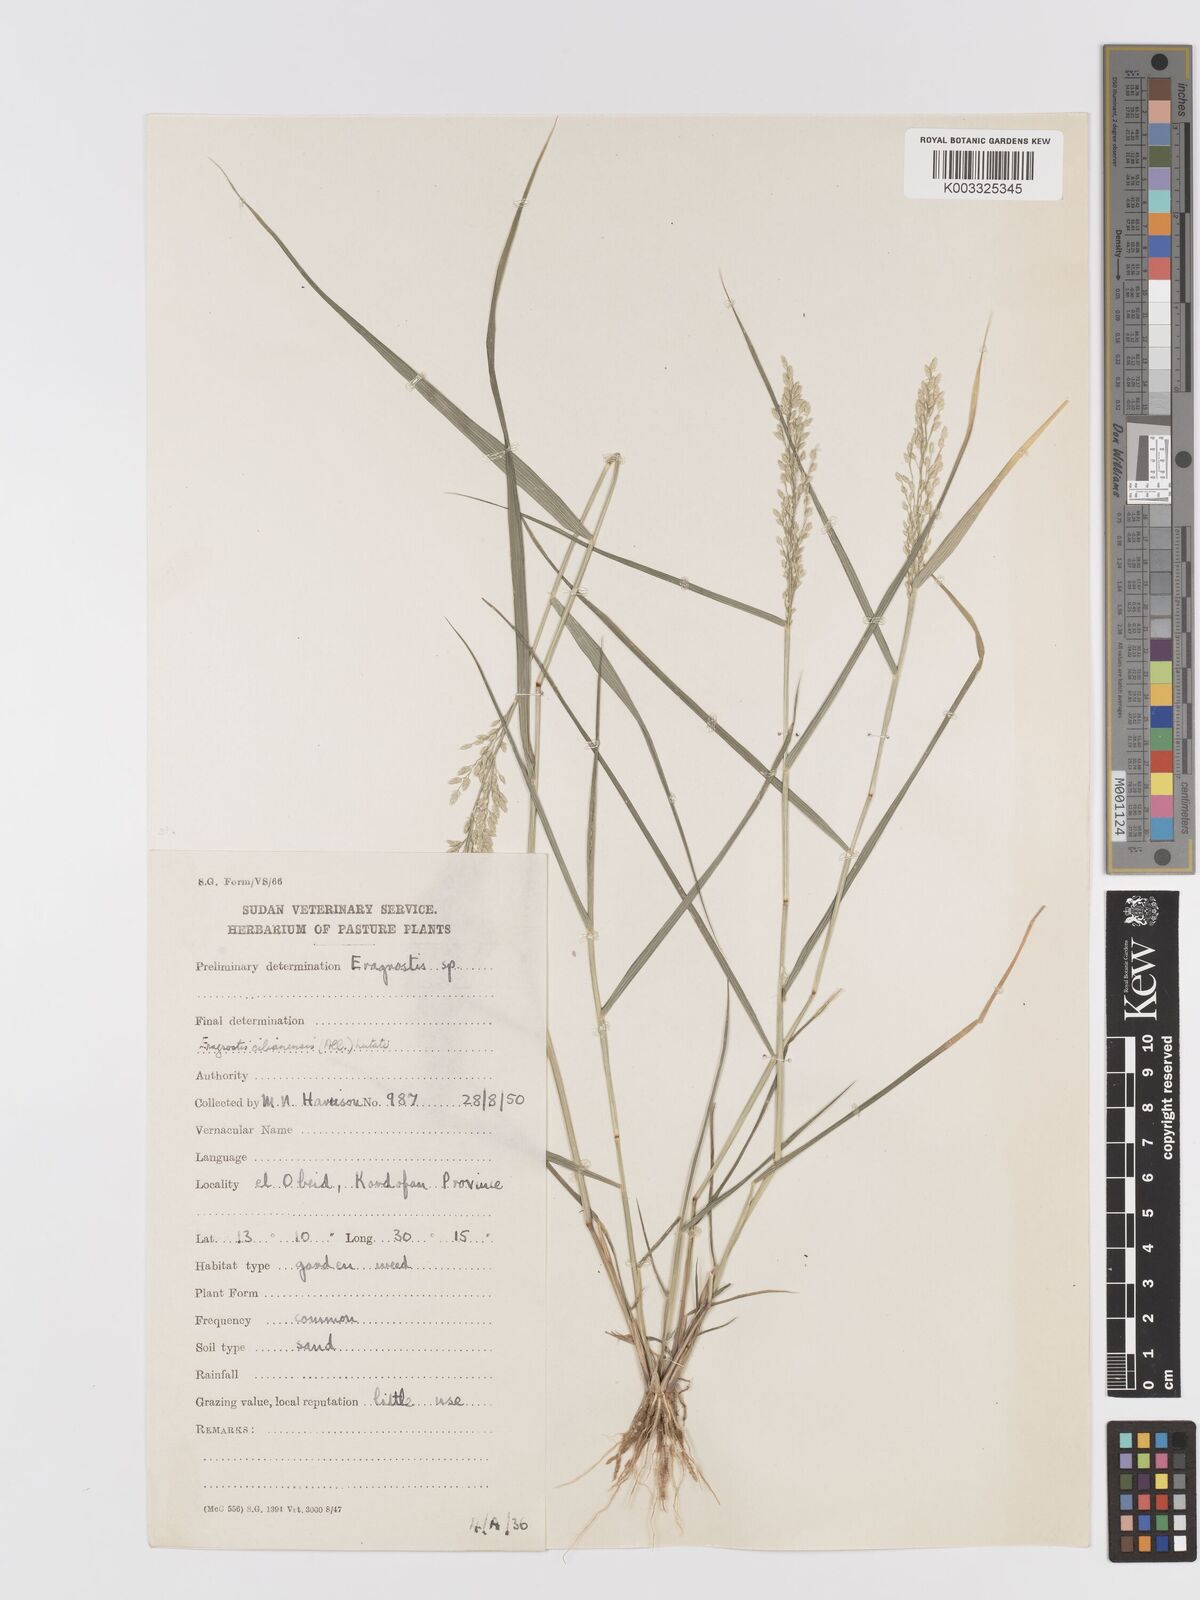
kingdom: Plantae
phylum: Tracheophyta
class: Liliopsida
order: Poales
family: Poaceae
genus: Eragrostis
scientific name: Eragrostis cilianensis
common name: Stinkgrass
